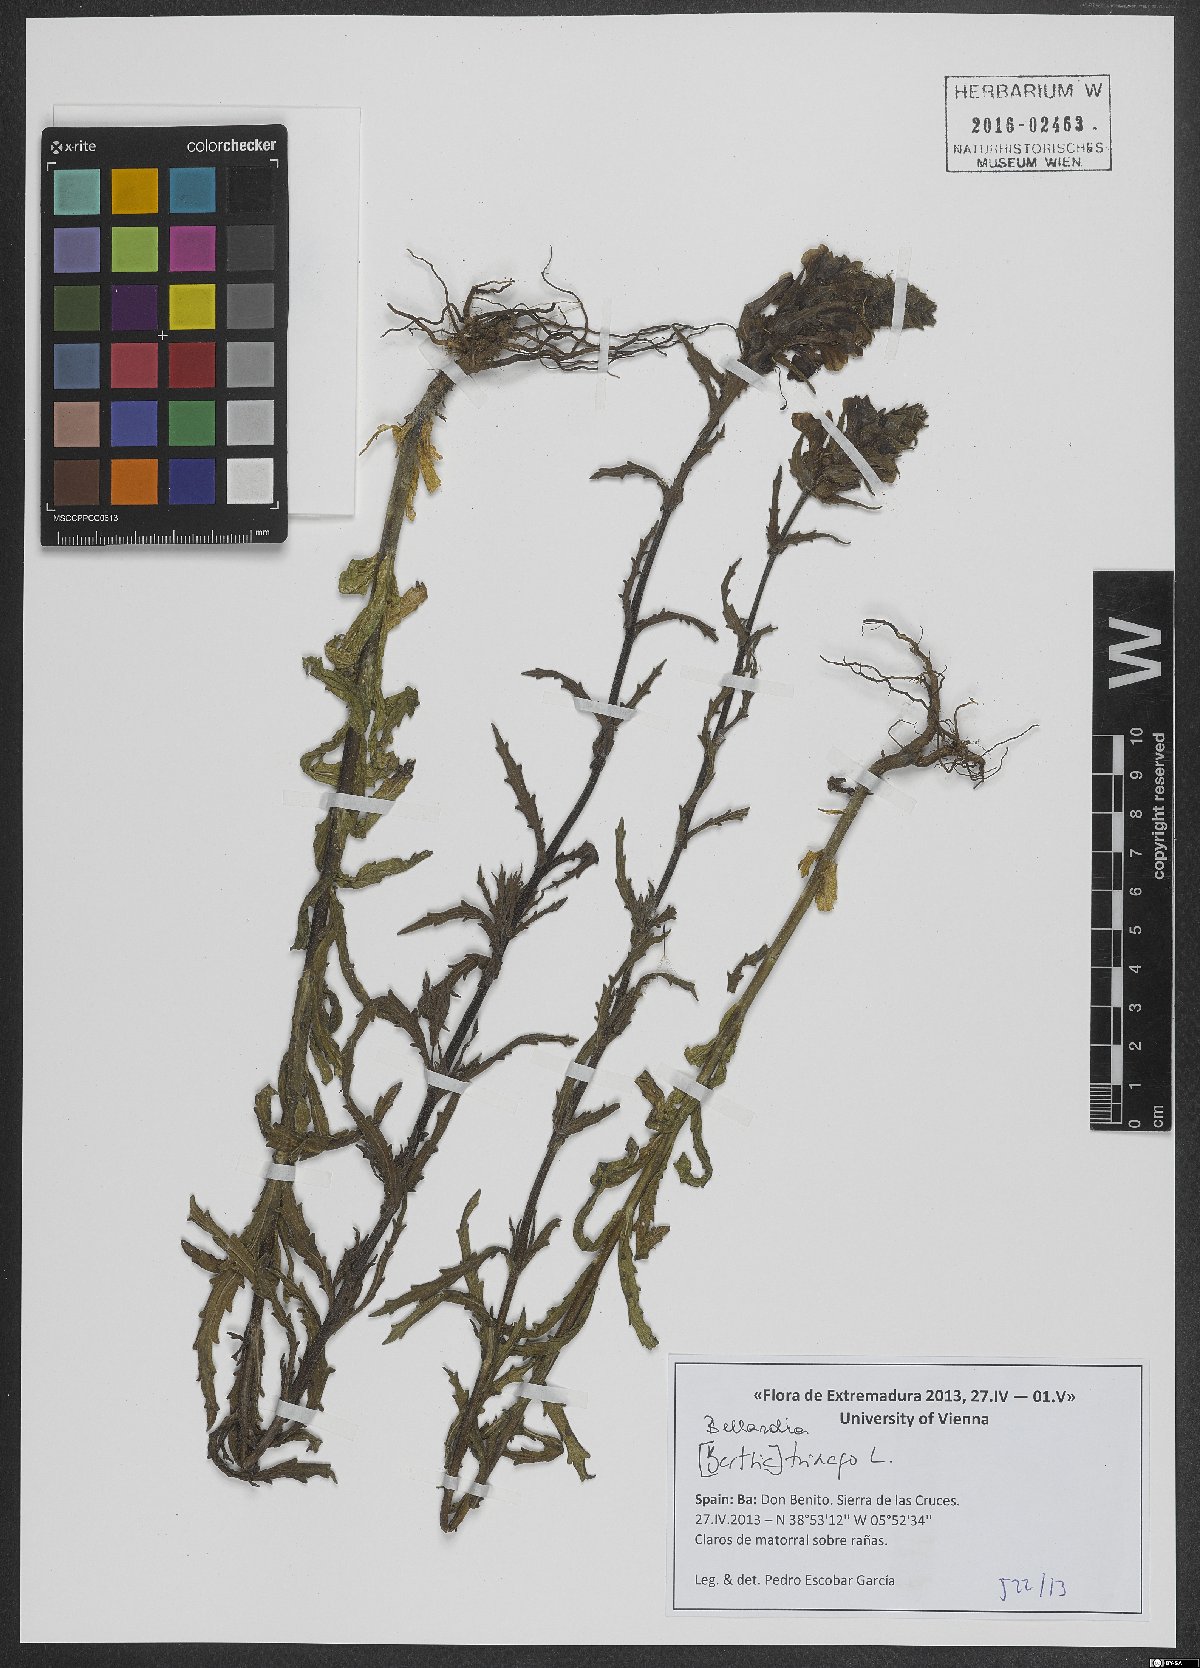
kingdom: Plantae
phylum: Tracheophyta
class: Magnoliopsida
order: Lamiales
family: Orobanchaceae
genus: Bellardia
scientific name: Bellardia trixago
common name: Mediterranean lineseed
